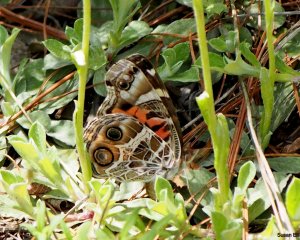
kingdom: Animalia
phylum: Arthropoda
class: Insecta
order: Lepidoptera
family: Nymphalidae
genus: Vanessa
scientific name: Vanessa virginiensis
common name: American Lady
